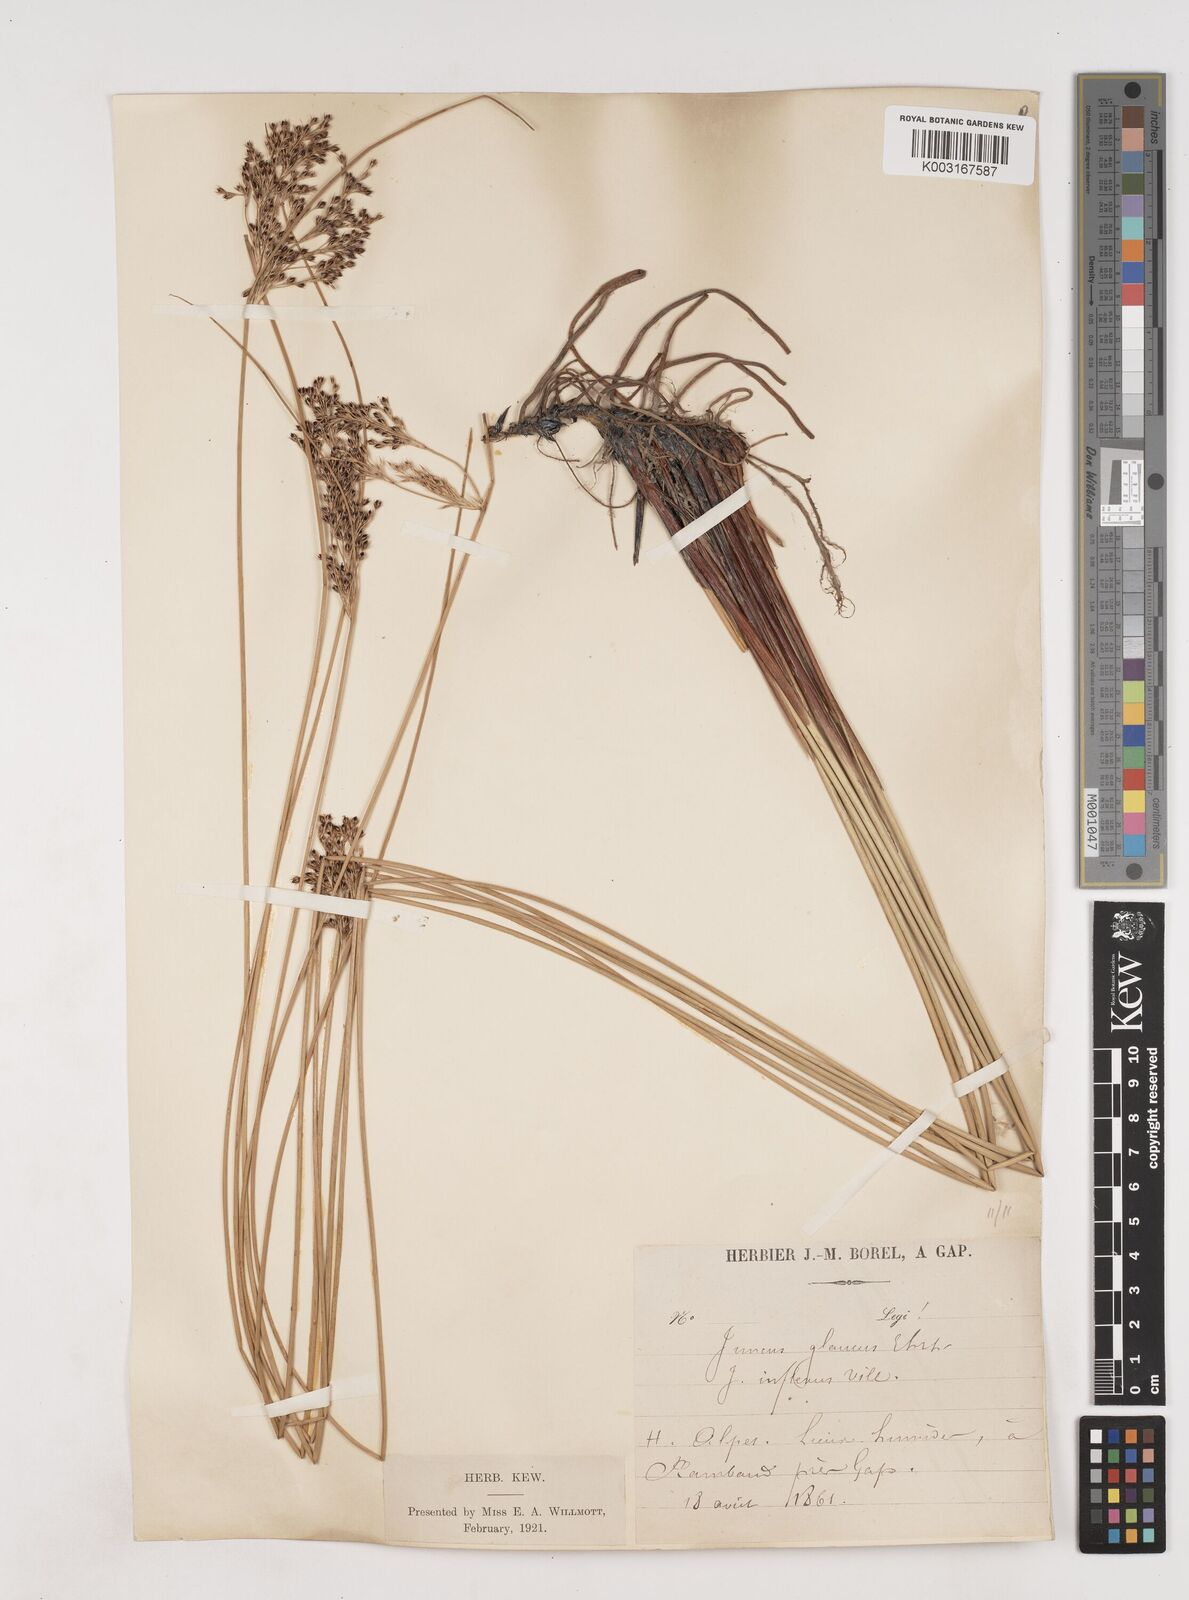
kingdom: Plantae
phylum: Tracheophyta
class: Liliopsida
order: Poales
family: Juncaceae
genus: Juncus
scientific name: Juncus inflexus
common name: Hard rush
